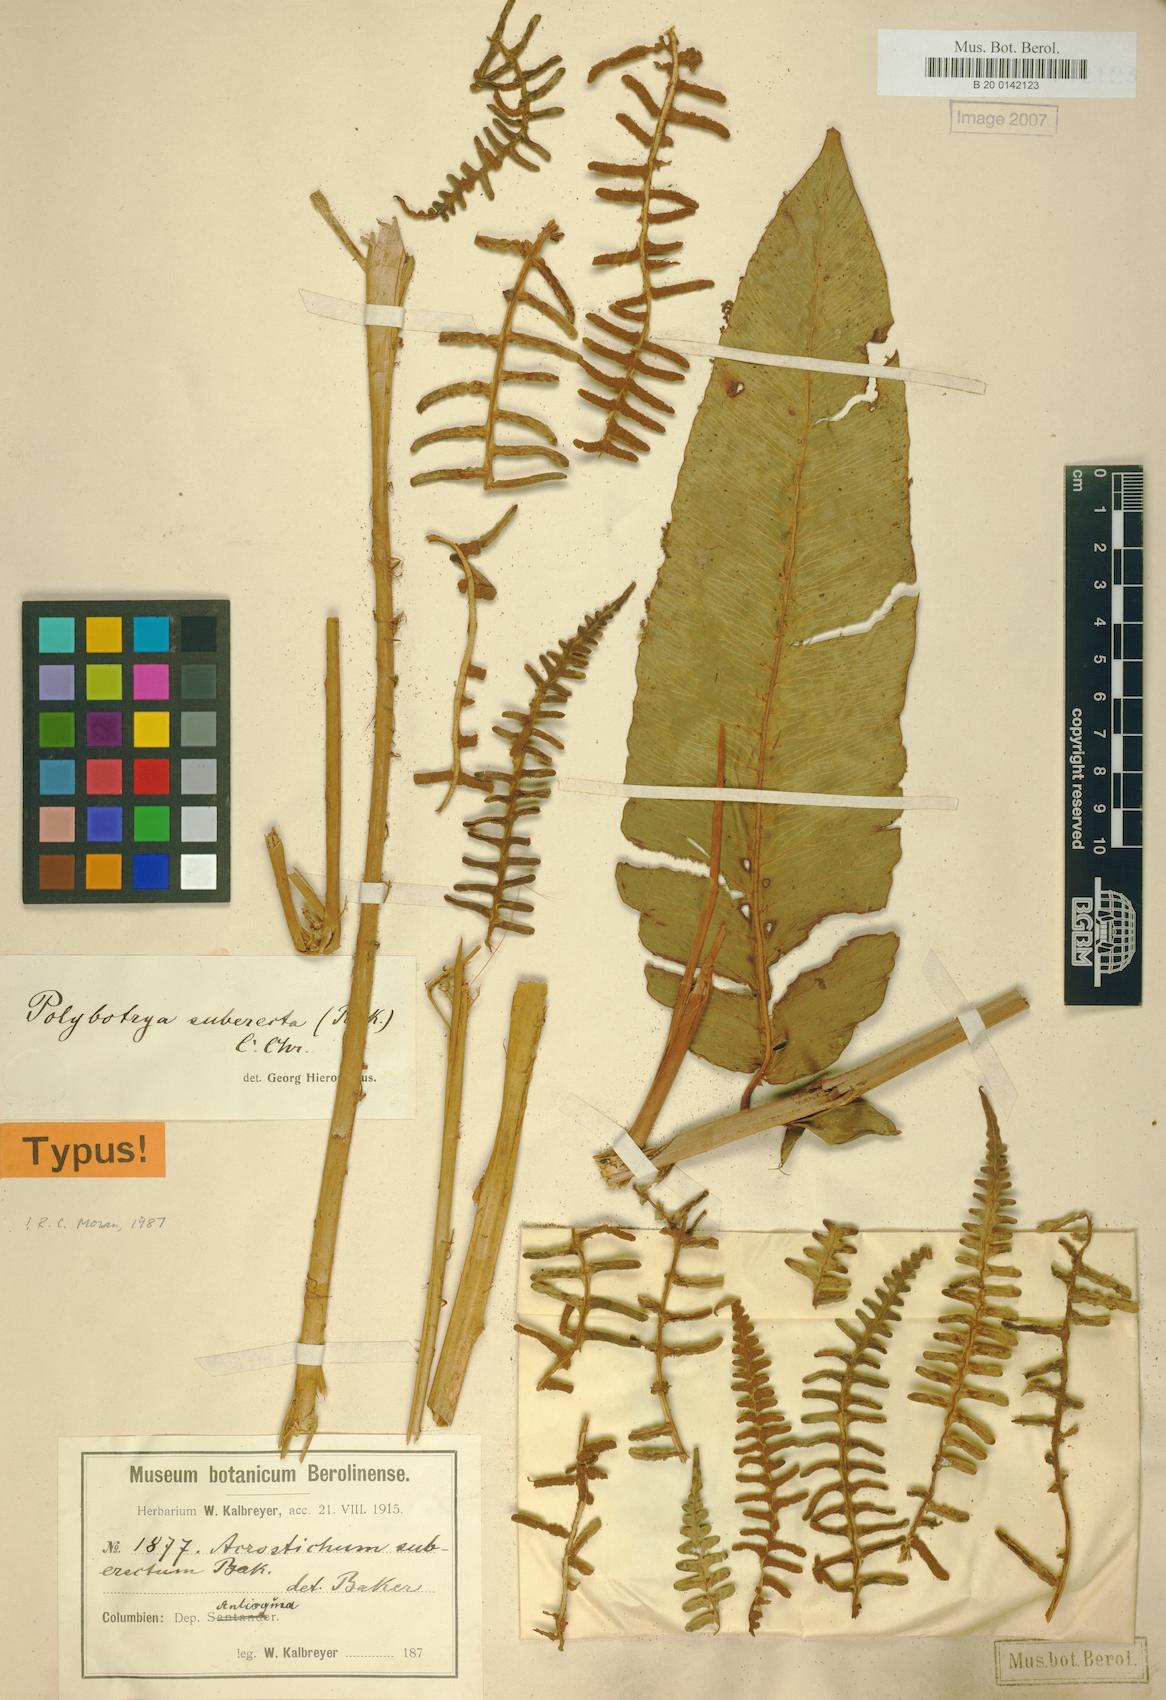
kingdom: Plantae
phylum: Tracheophyta
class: Polypodiopsida
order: Polypodiales
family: Dryopteridaceae
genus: Polybotrya
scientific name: Polybotrya suberecta
